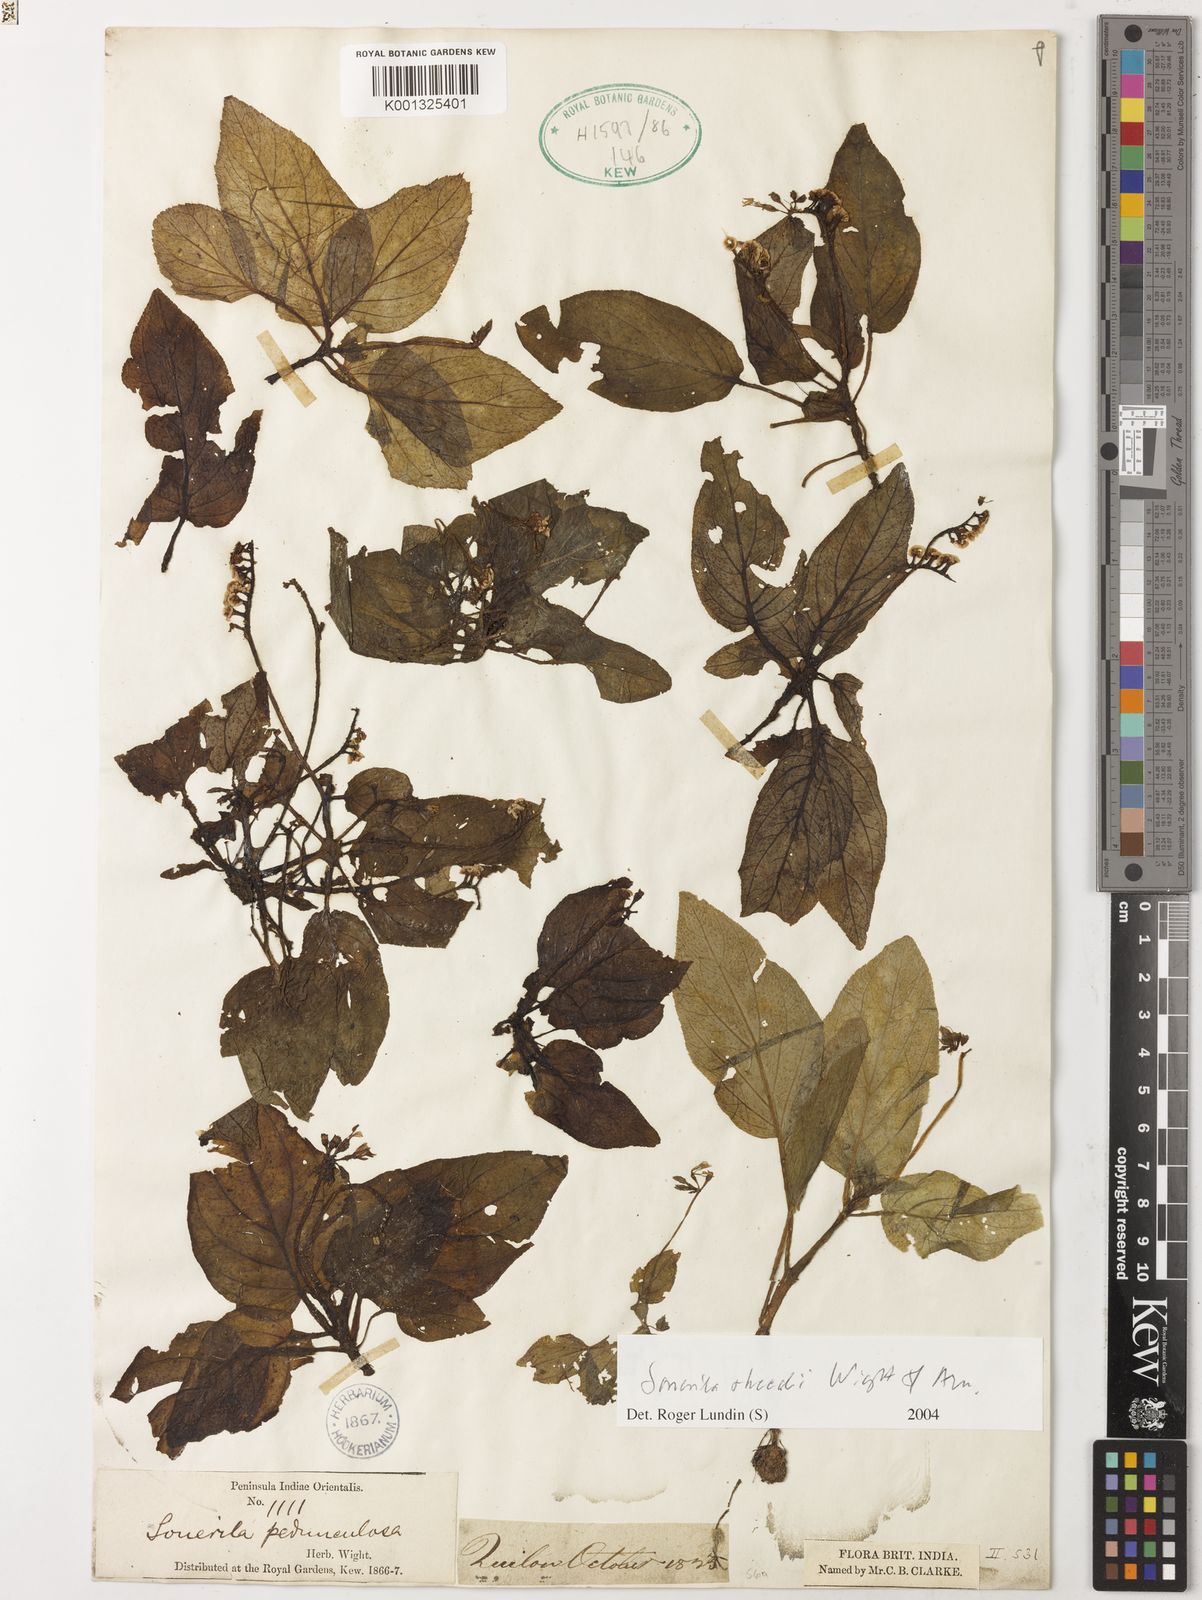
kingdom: Plantae
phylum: Tracheophyta
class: Magnoliopsida
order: Myrtales
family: Melastomataceae
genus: Sonerila
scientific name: Sonerila rheedei
